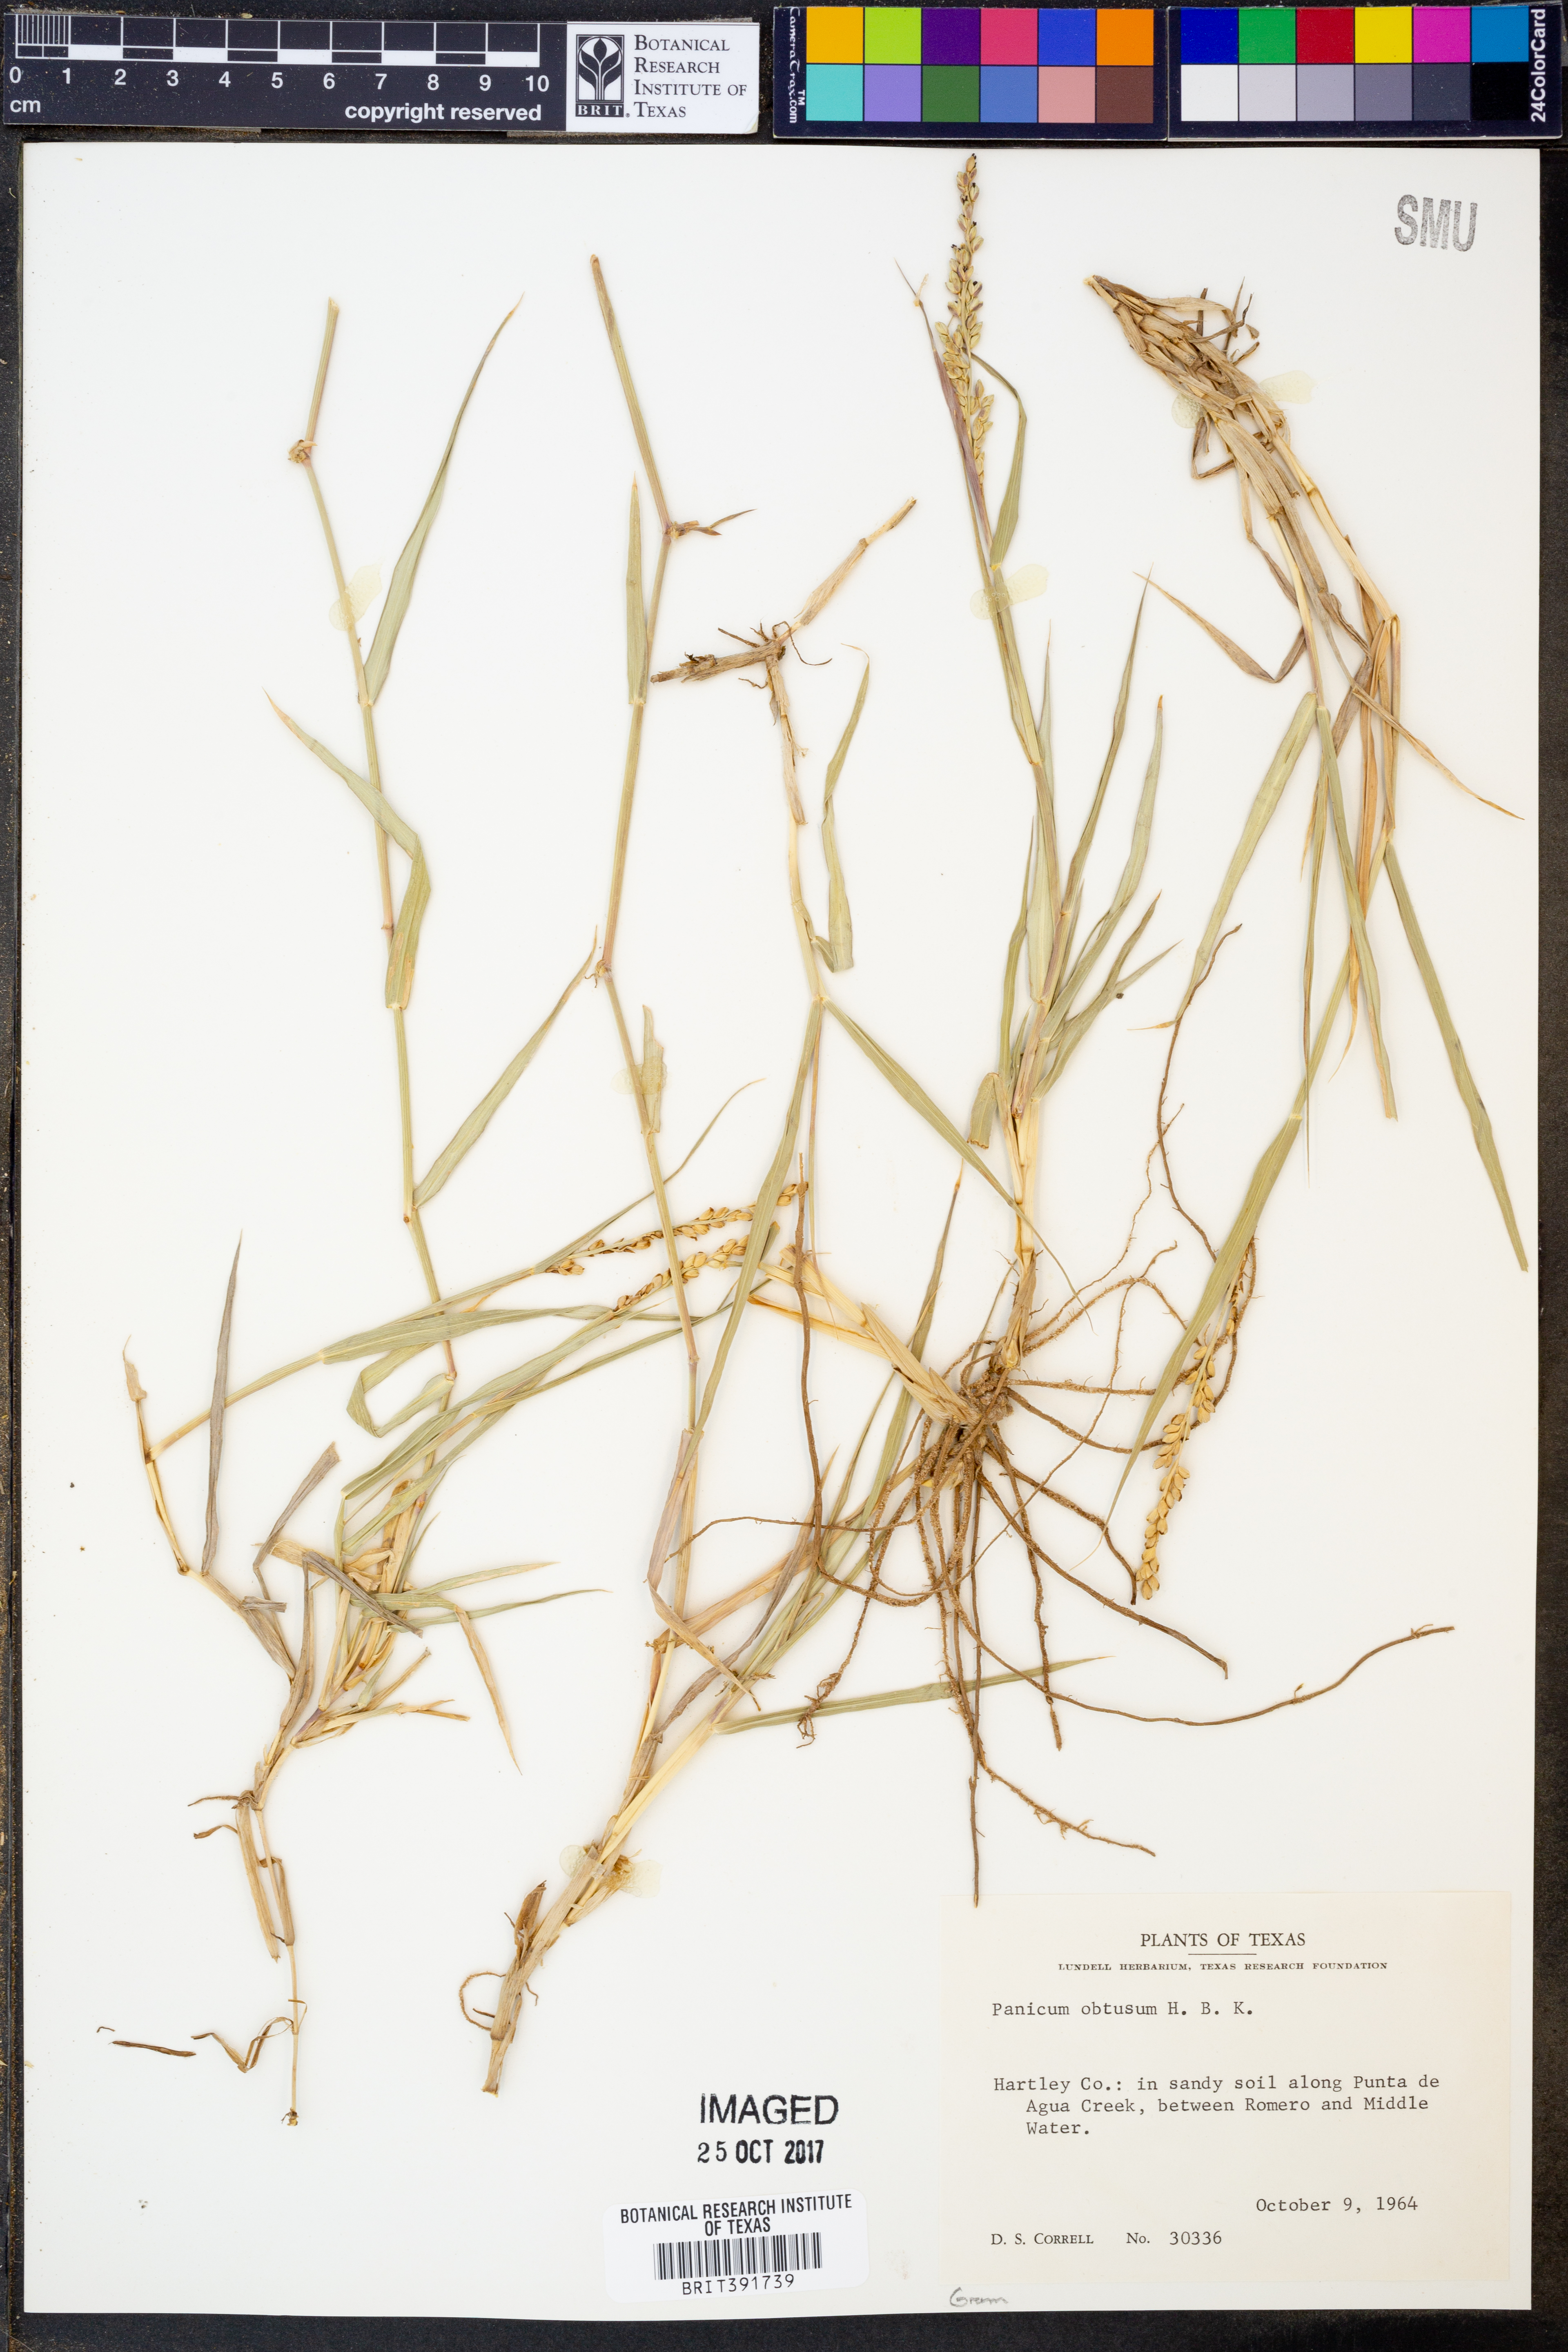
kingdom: Plantae
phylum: Tracheophyta
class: Liliopsida
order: Poales
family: Poaceae
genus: Hopia
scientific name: Hopia obtusa
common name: Vine-mesquite
